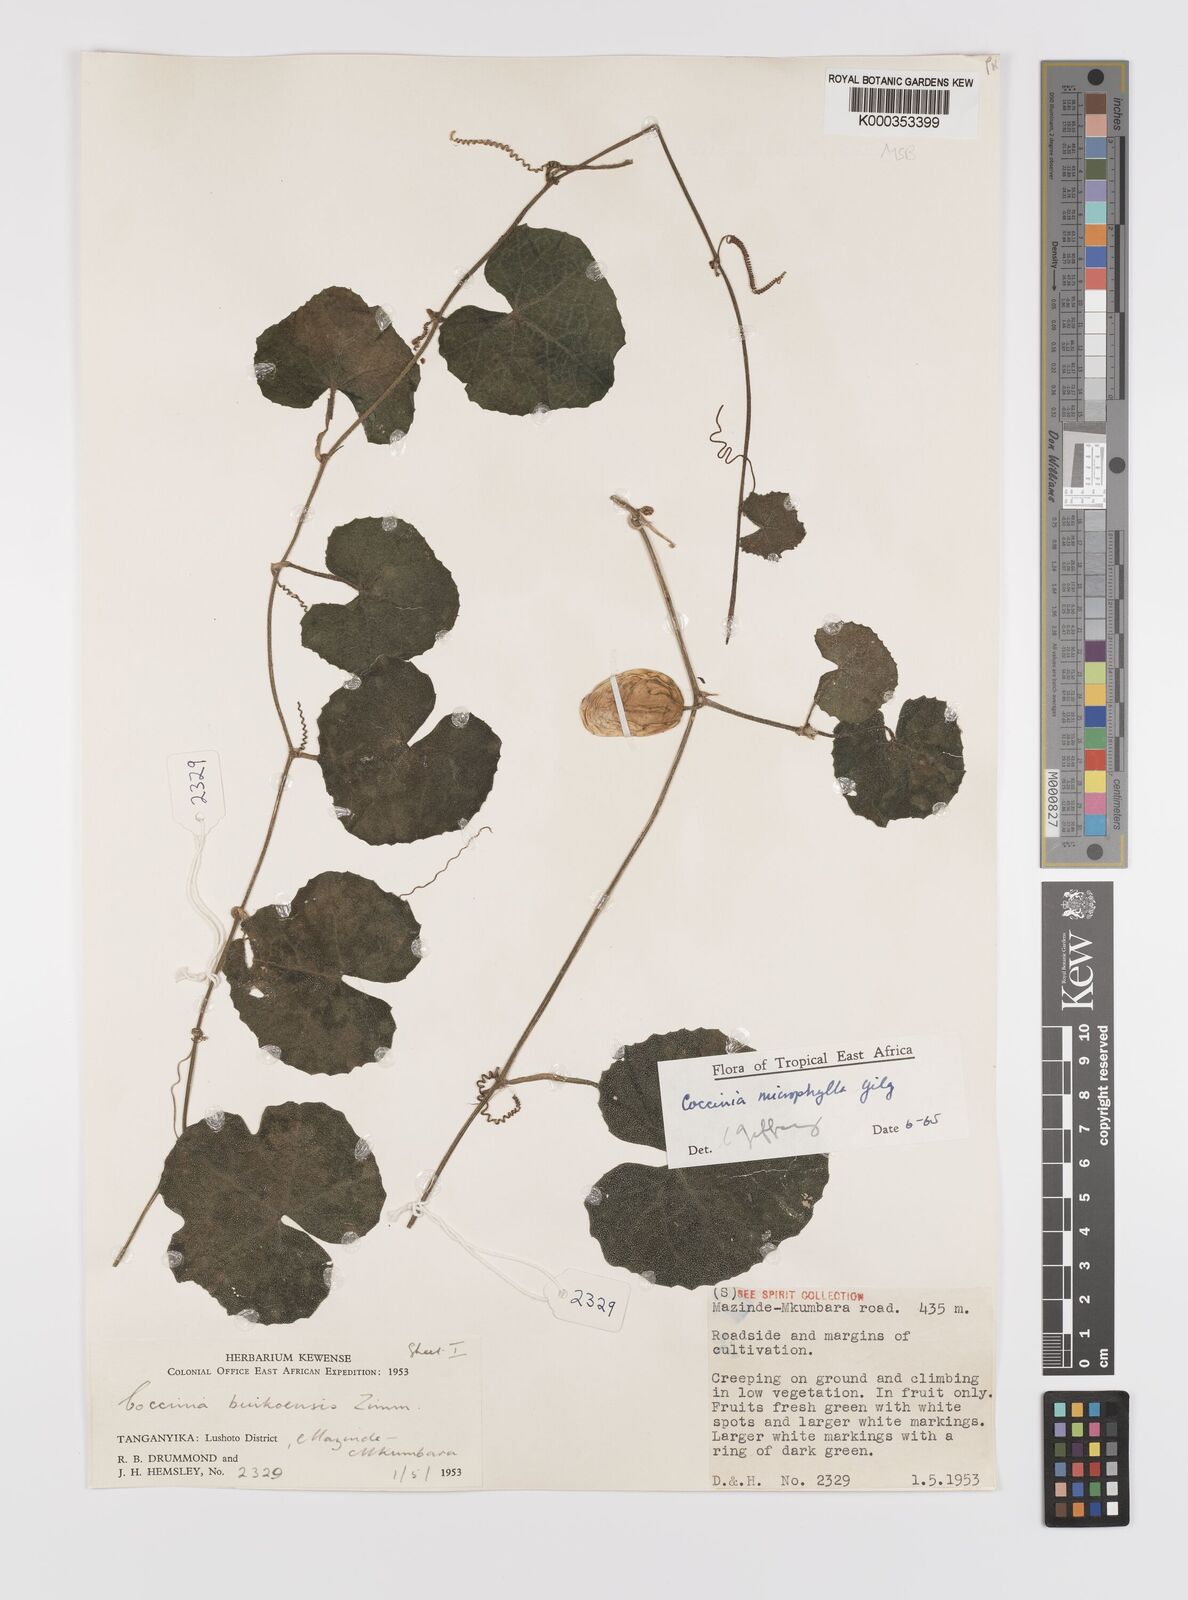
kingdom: Plantae
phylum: Tracheophyta
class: Magnoliopsida
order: Cucurbitales
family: Cucurbitaceae
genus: Coccinia
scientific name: Coccinia microphylla
